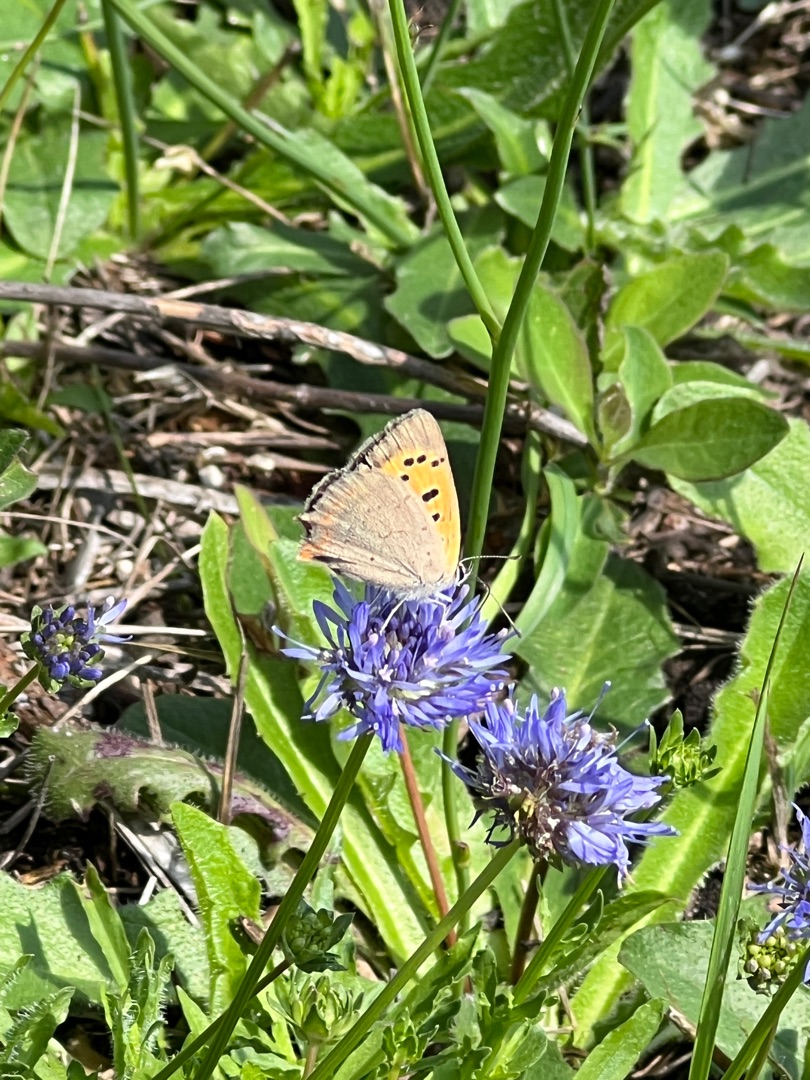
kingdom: Animalia
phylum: Arthropoda
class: Insecta
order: Lepidoptera
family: Lycaenidae
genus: Lycaena
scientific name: Lycaena phlaeas
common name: Lille ildfugl
